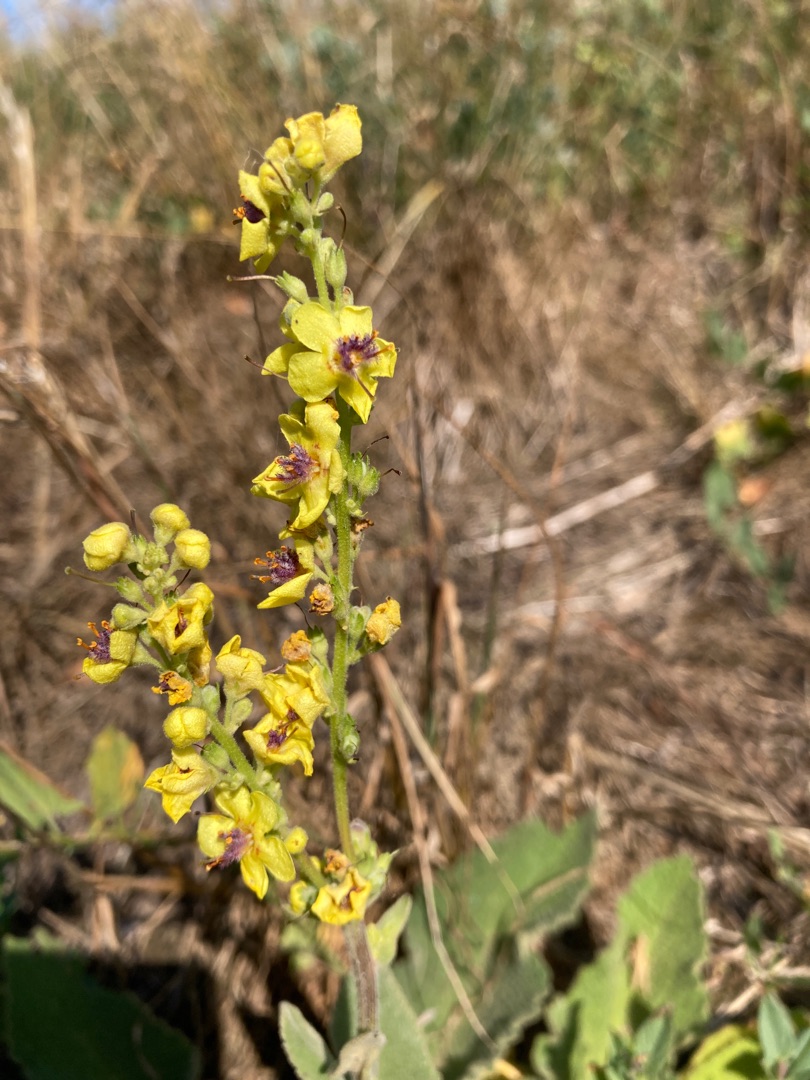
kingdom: Plantae
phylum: Tracheophyta
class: Magnoliopsida
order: Lamiales
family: Scrophulariaceae
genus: Verbascum
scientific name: Verbascum nigrum
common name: Mørk kongelys
